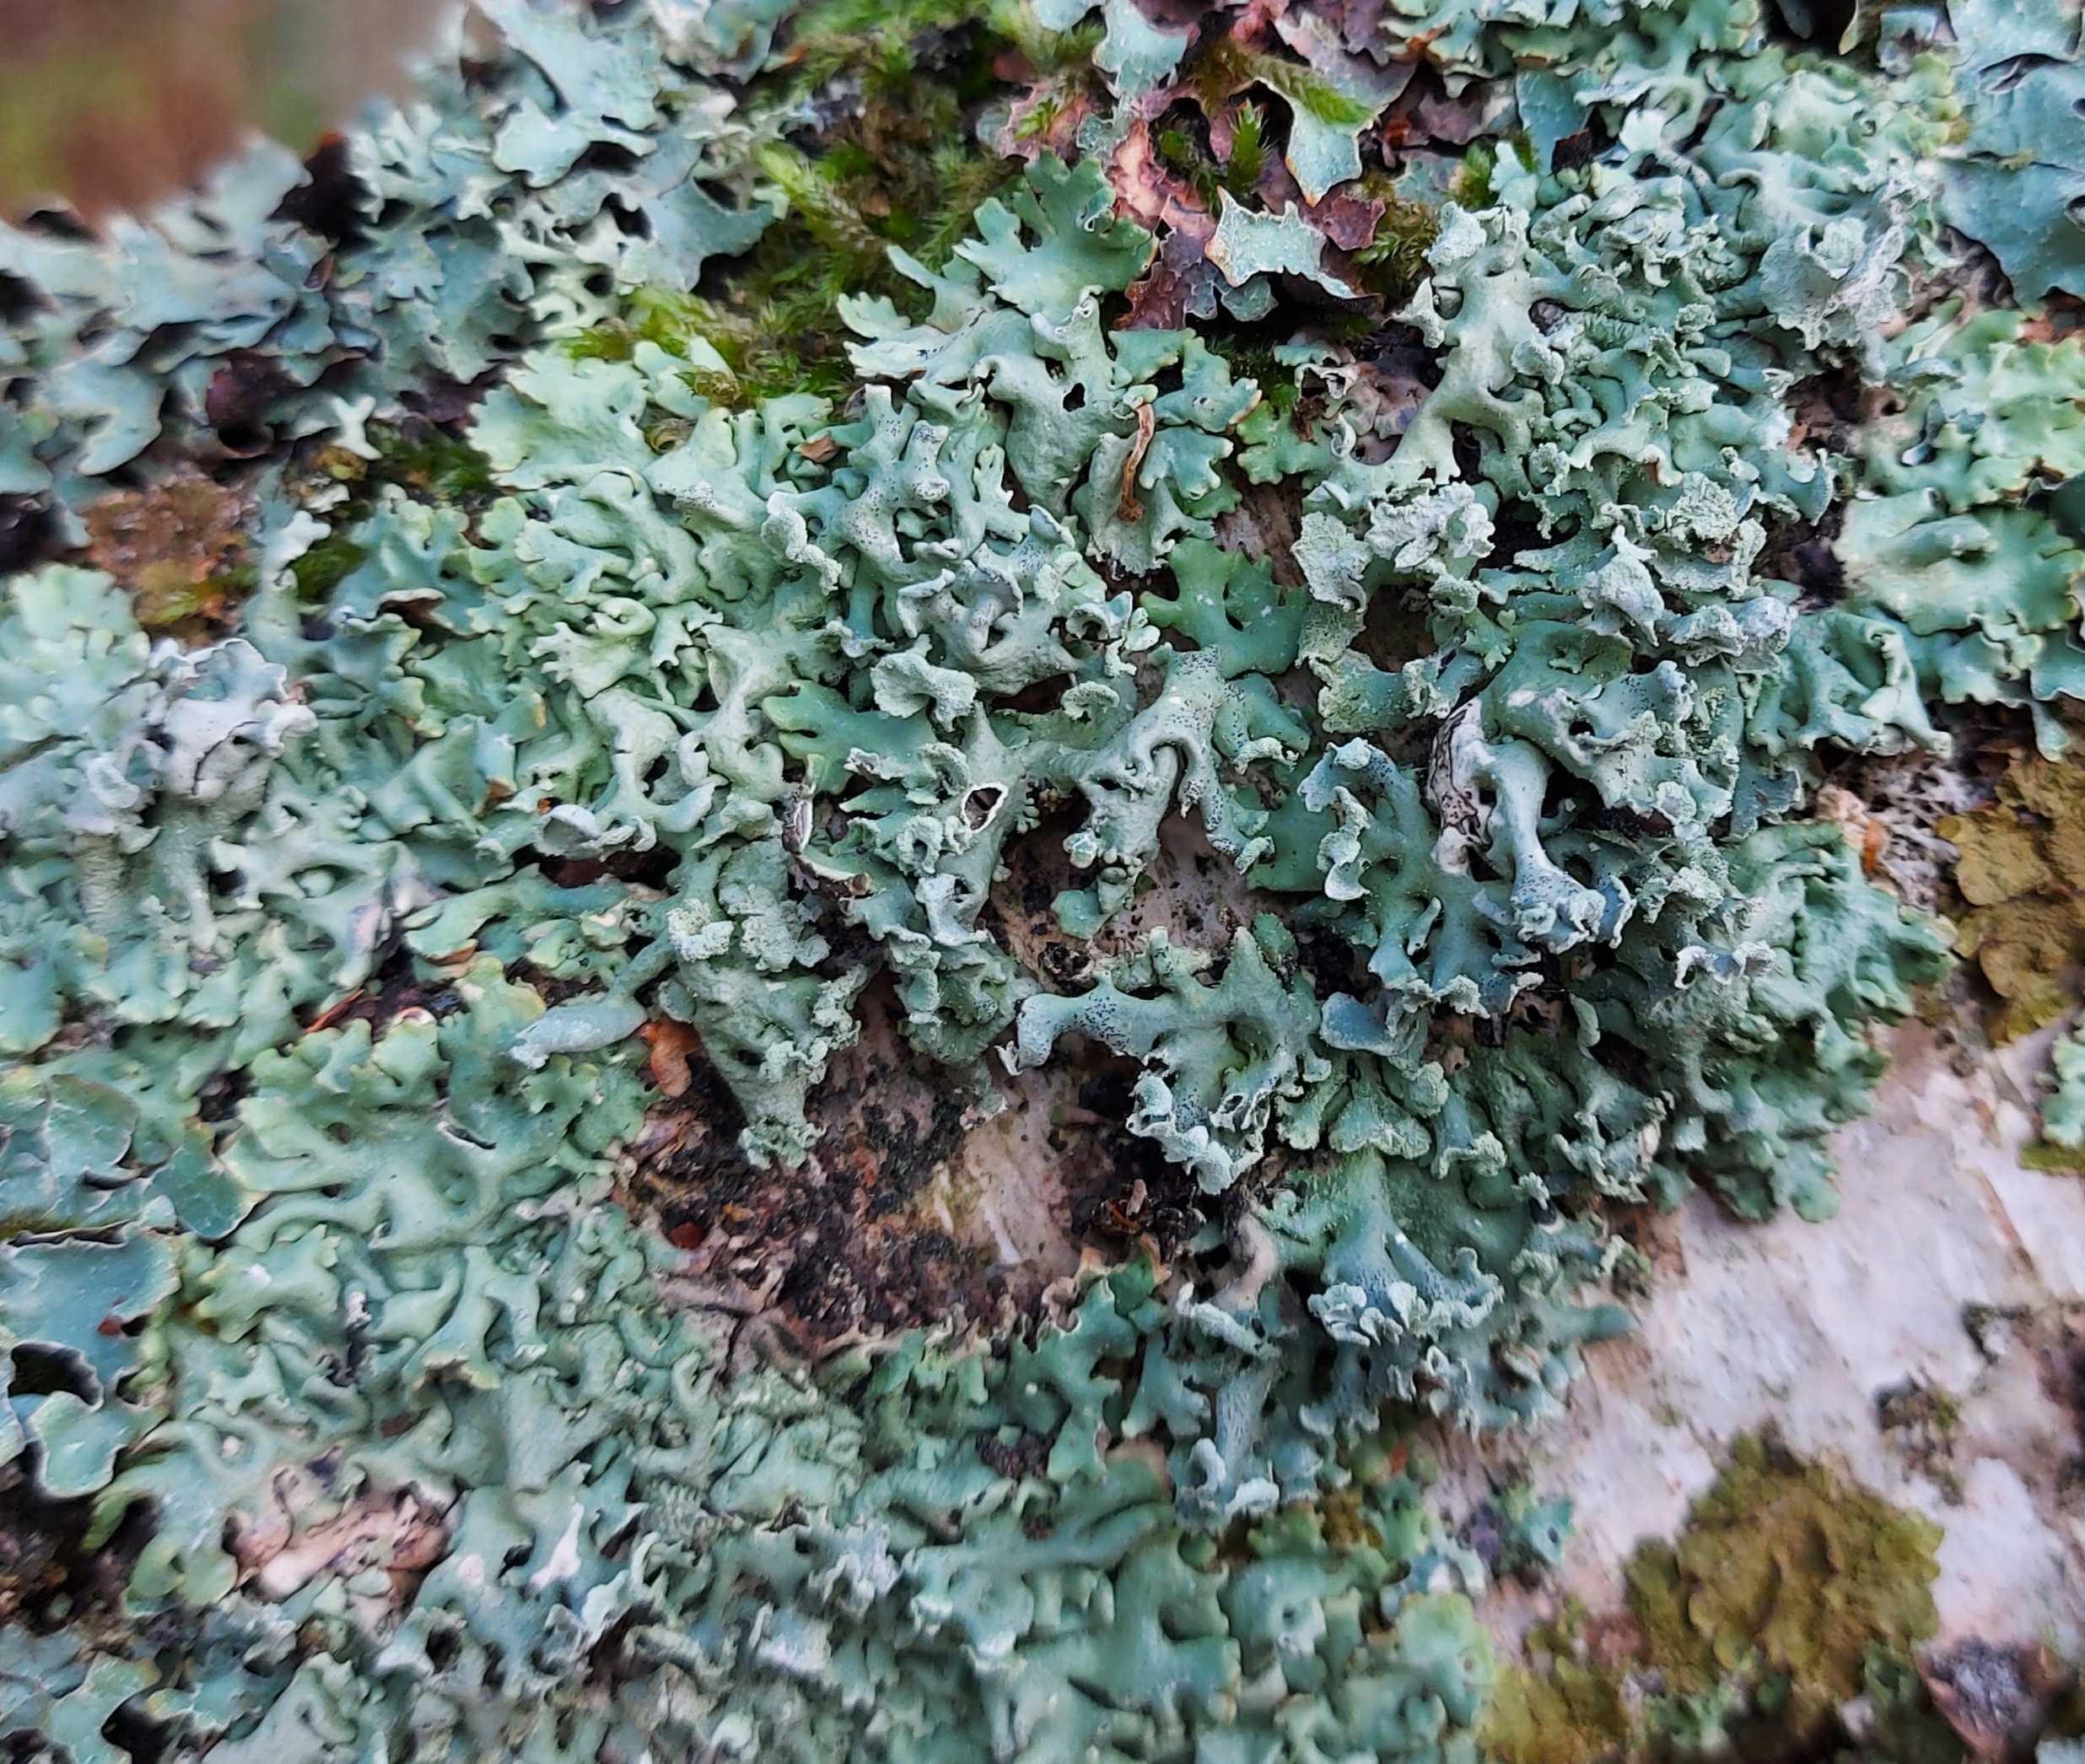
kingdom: Fungi
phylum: Ascomycota
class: Lecanoromycetes
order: Lecanorales
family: Parmeliaceae
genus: Hypogymnia
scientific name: Hypogymnia physodes
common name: almindelig kvistlav
